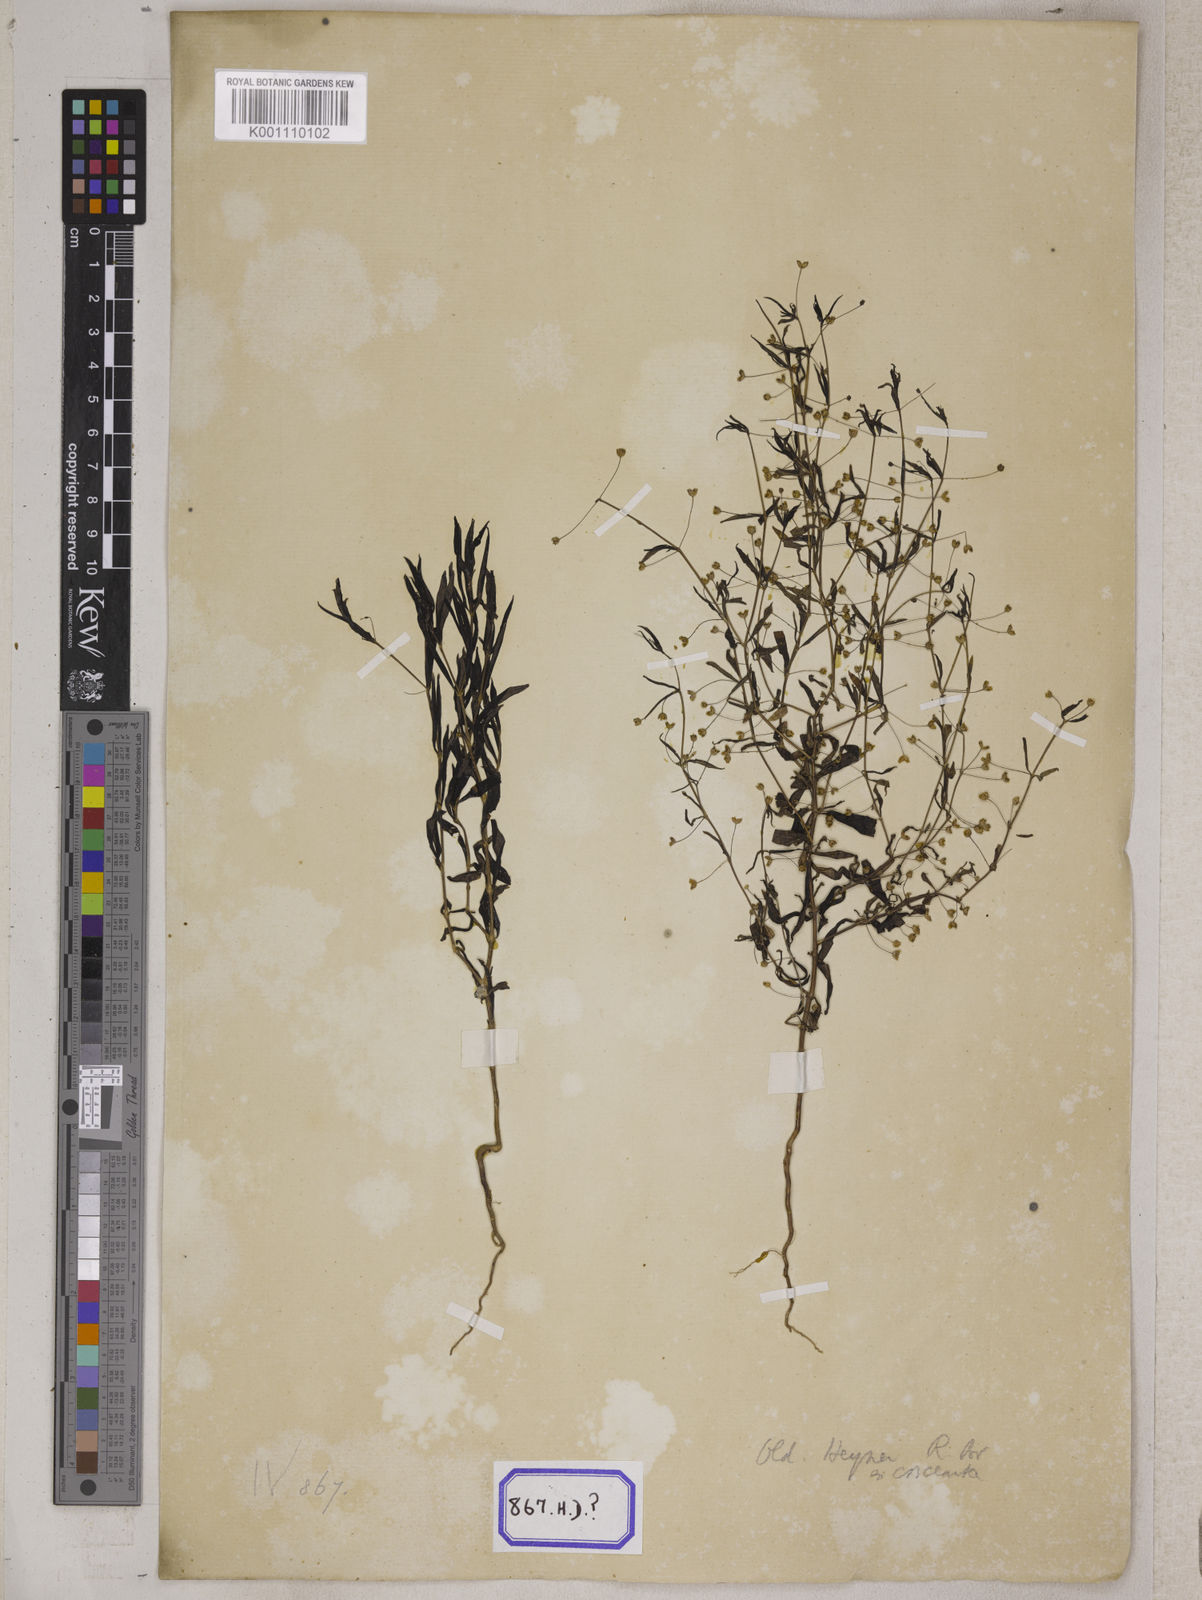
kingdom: Plantae
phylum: Tracheophyta
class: Magnoliopsida
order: Gentianales
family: Rubiaceae
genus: Hedyotis
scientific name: Hedyotis
